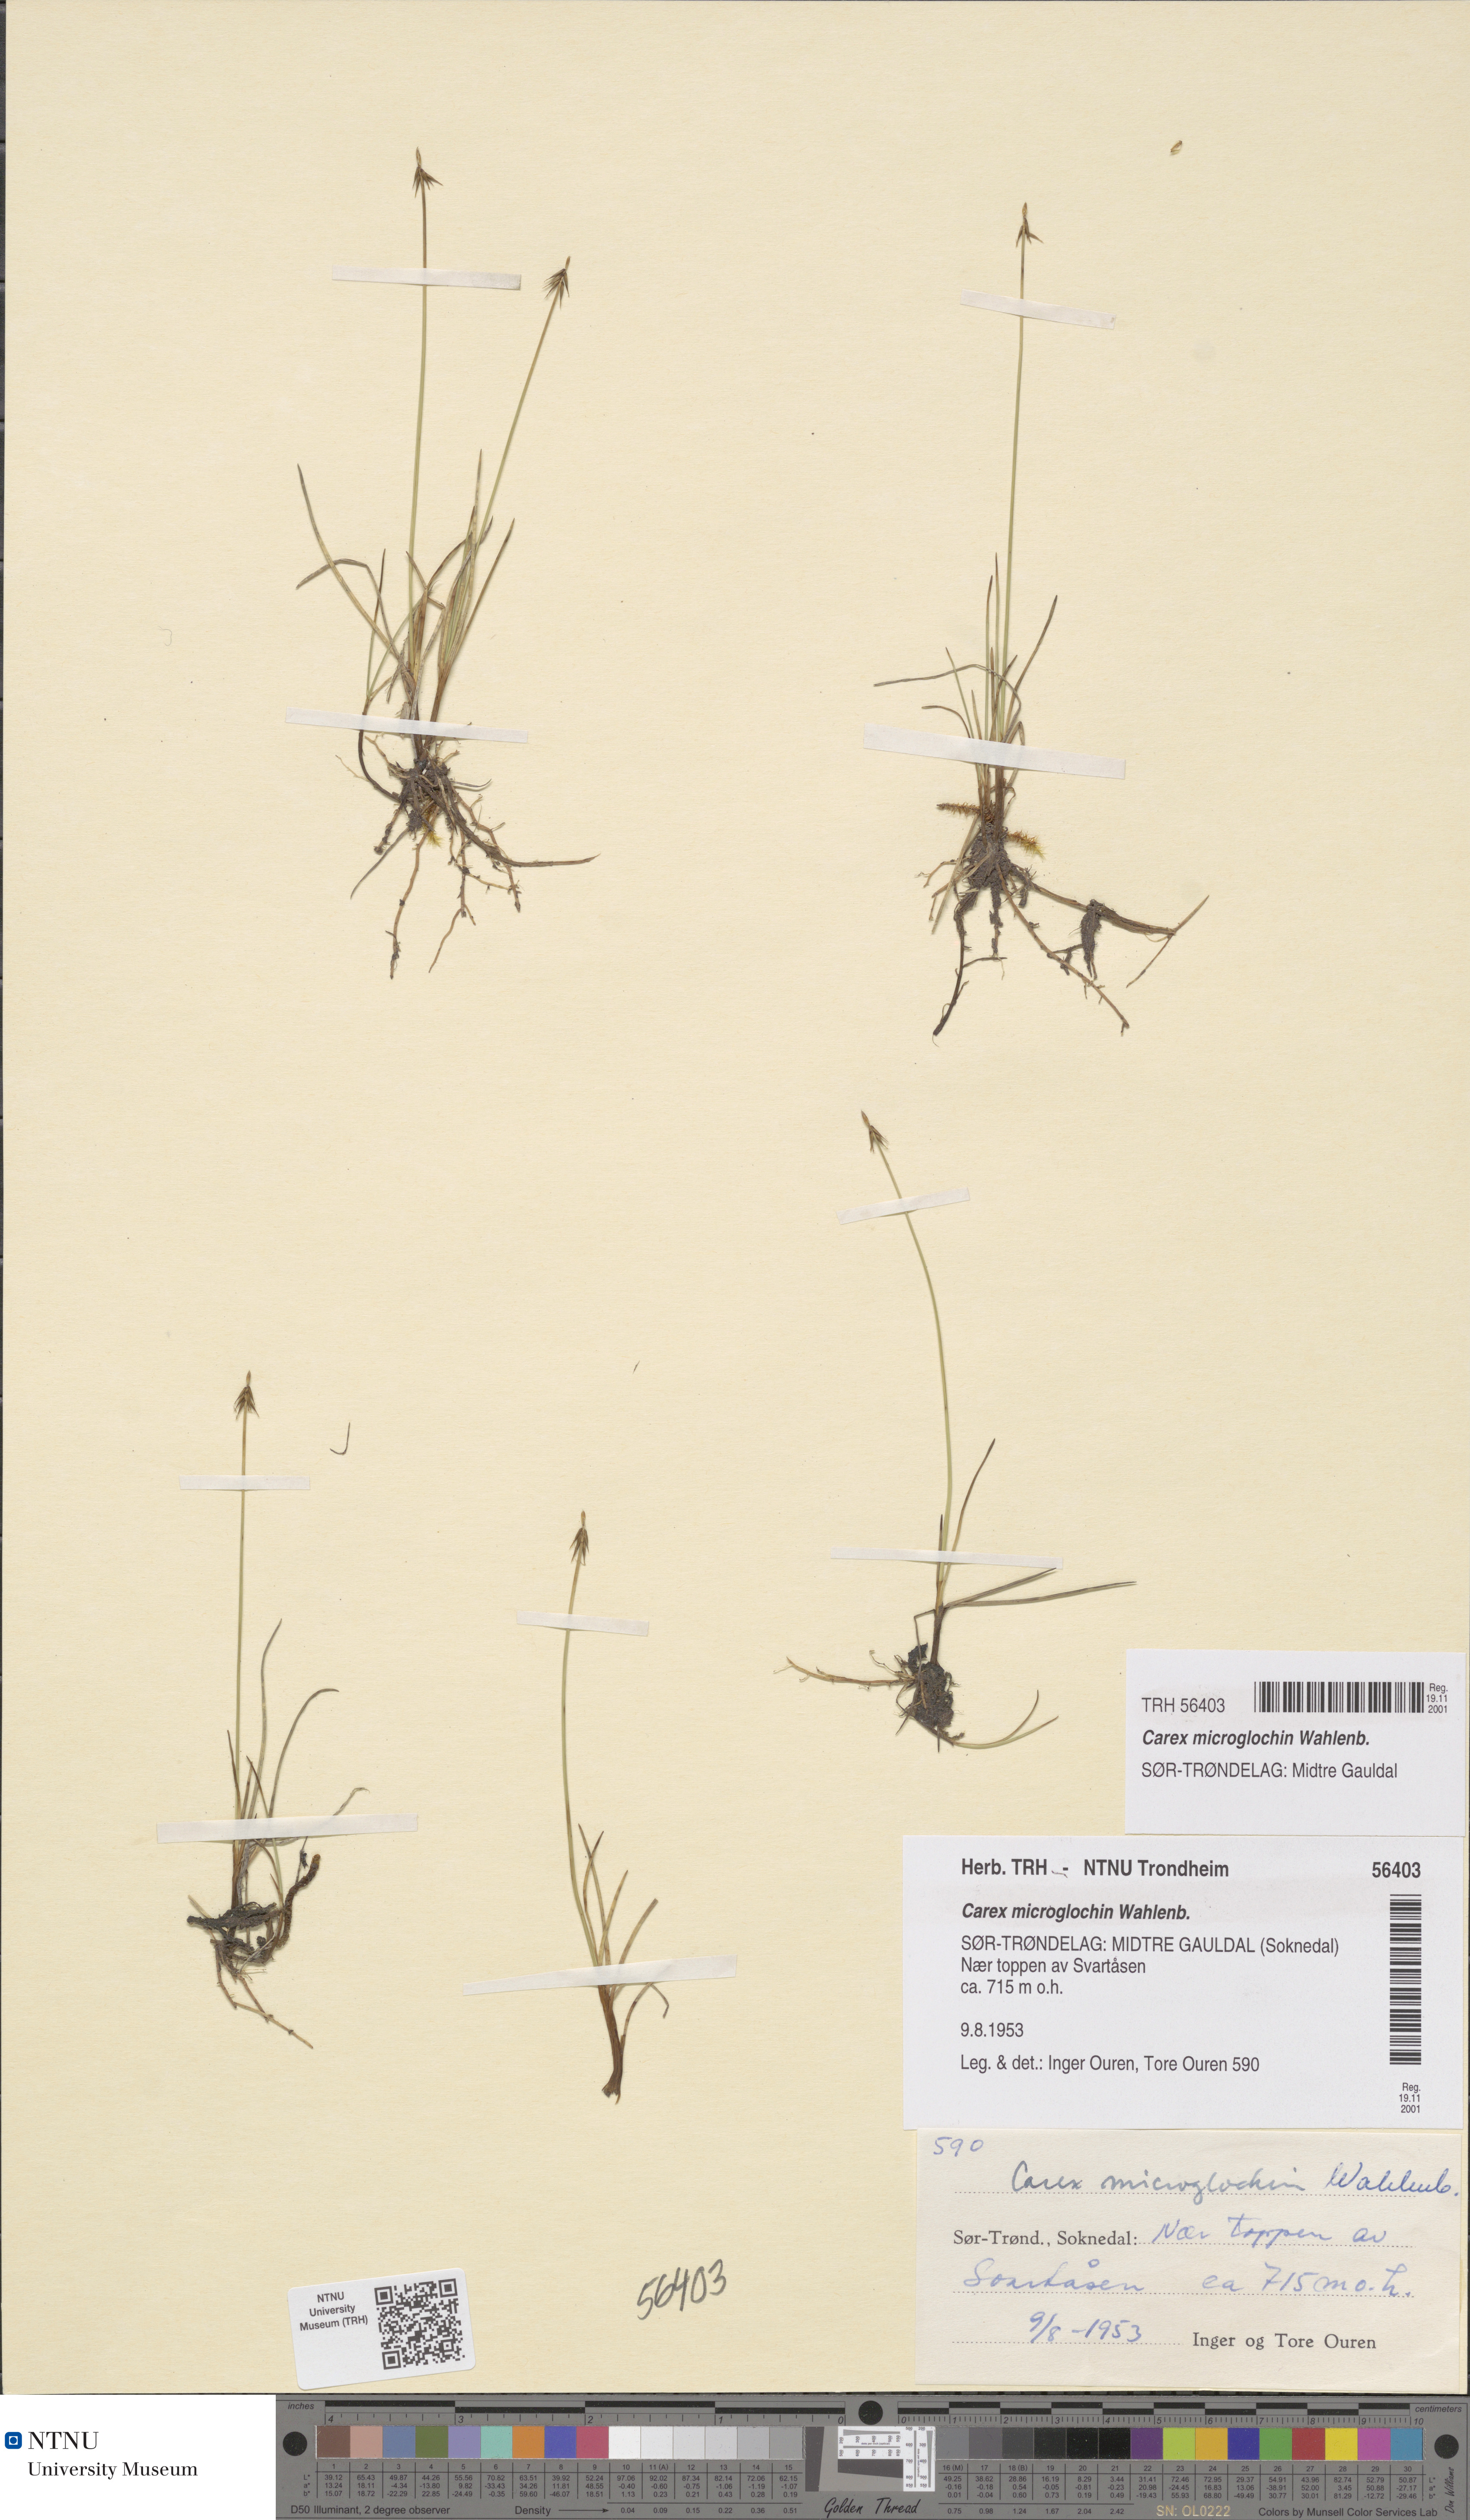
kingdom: Plantae
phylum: Tracheophyta
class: Liliopsida
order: Poales
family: Cyperaceae
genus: Carex
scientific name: Carex microglochin
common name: Bristle sedge
